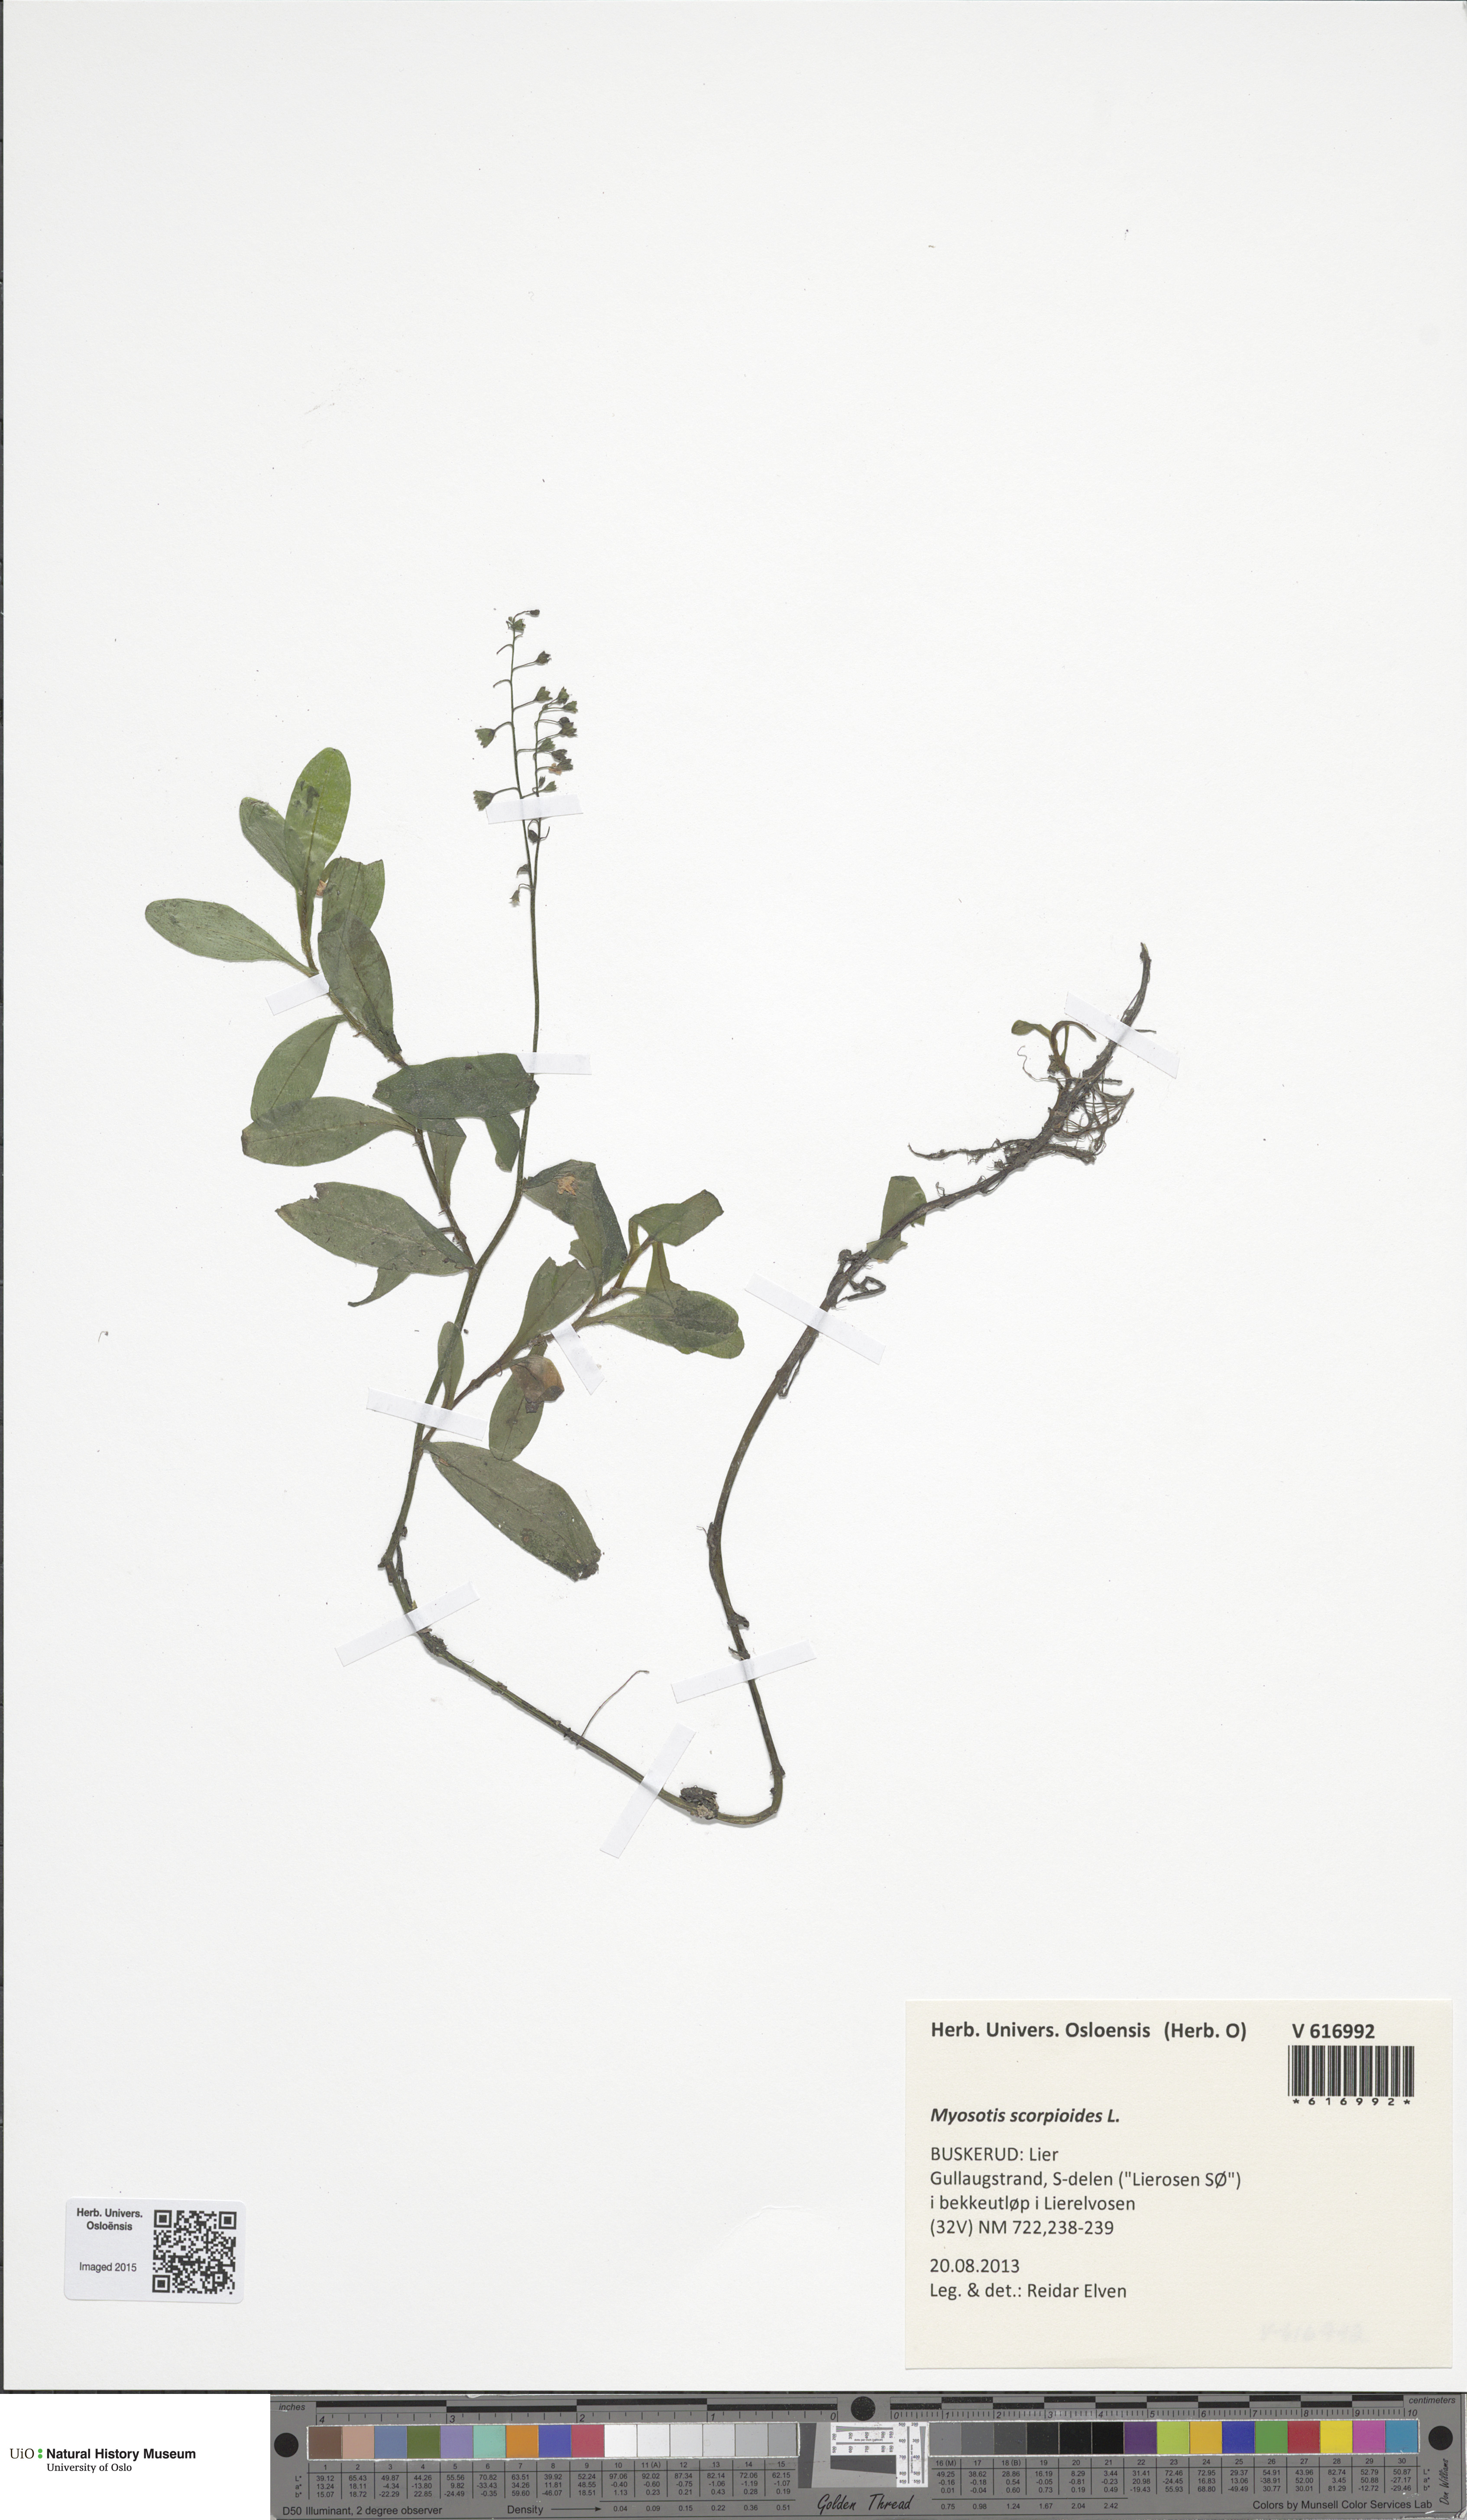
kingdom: Plantae
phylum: Tracheophyta
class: Magnoliopsida
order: Boraginales
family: Boraginaceae
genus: Myosotis
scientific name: Myosotis scorpioides
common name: Water forget-me-not
